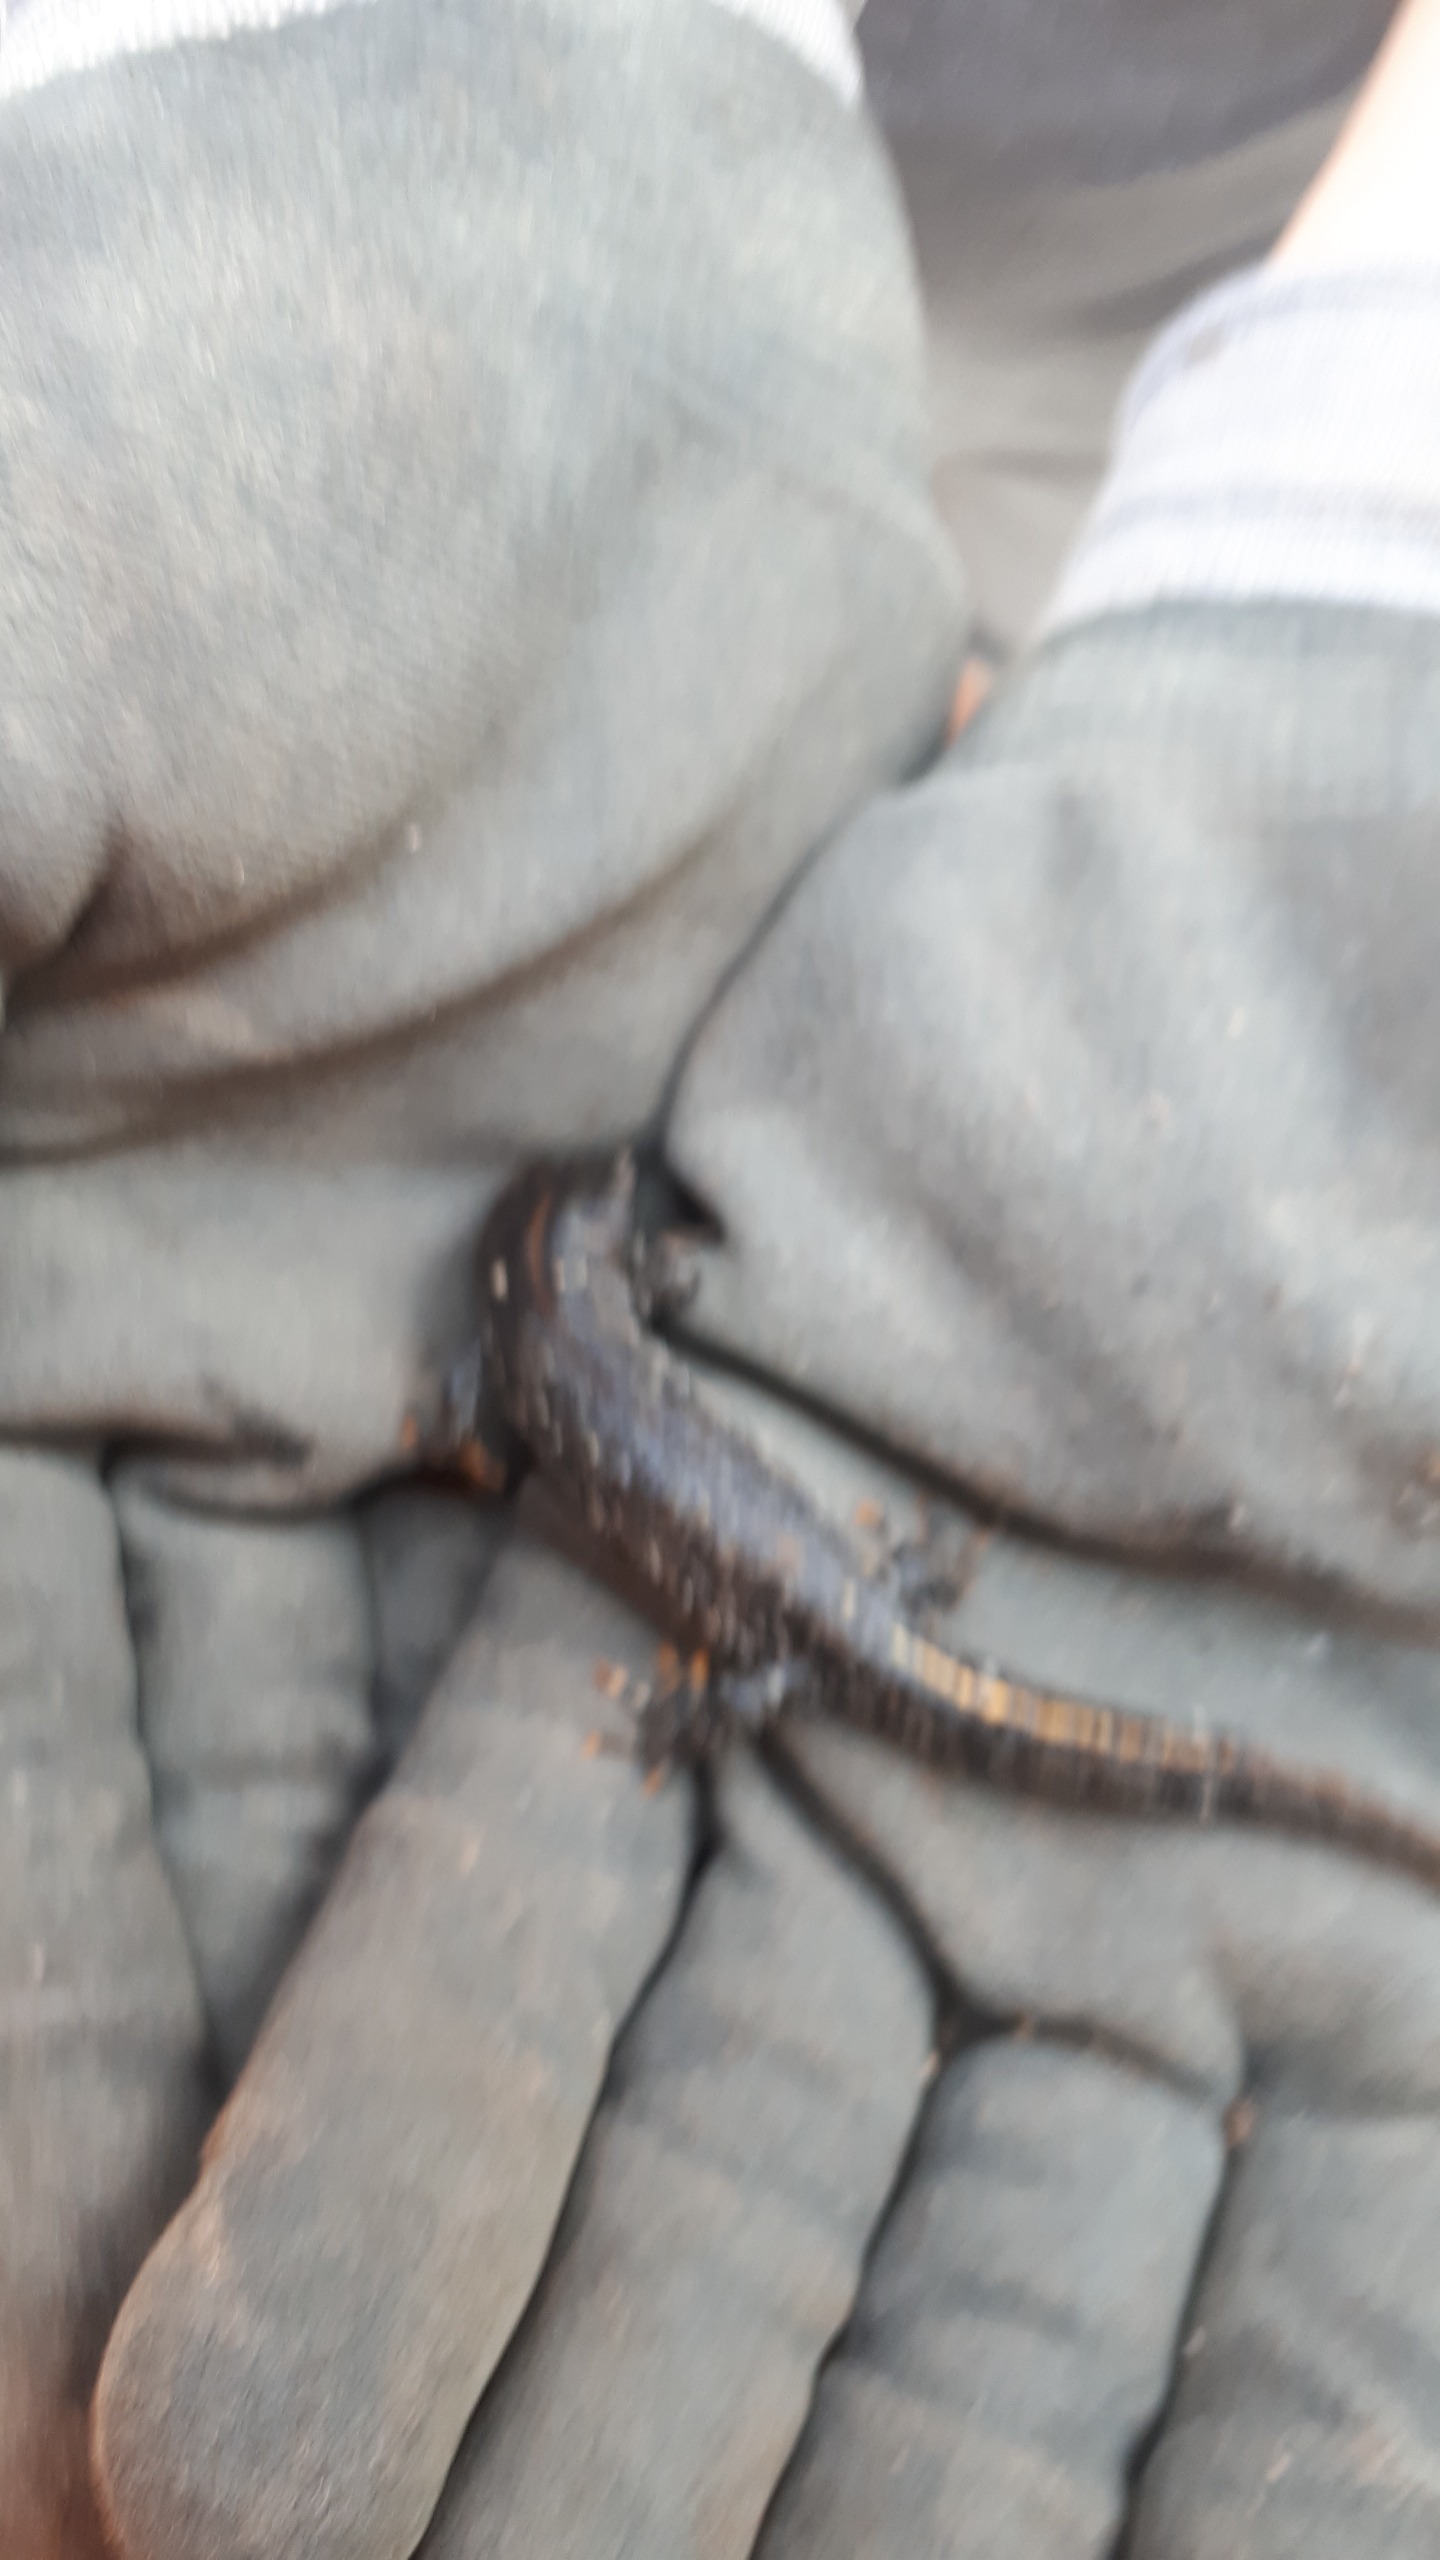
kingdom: Animalia
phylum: Chordata
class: Amphibia
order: Caudata
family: Salamandridae
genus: Triturus
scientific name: Triturus cristatus
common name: Stor vandsalamander
